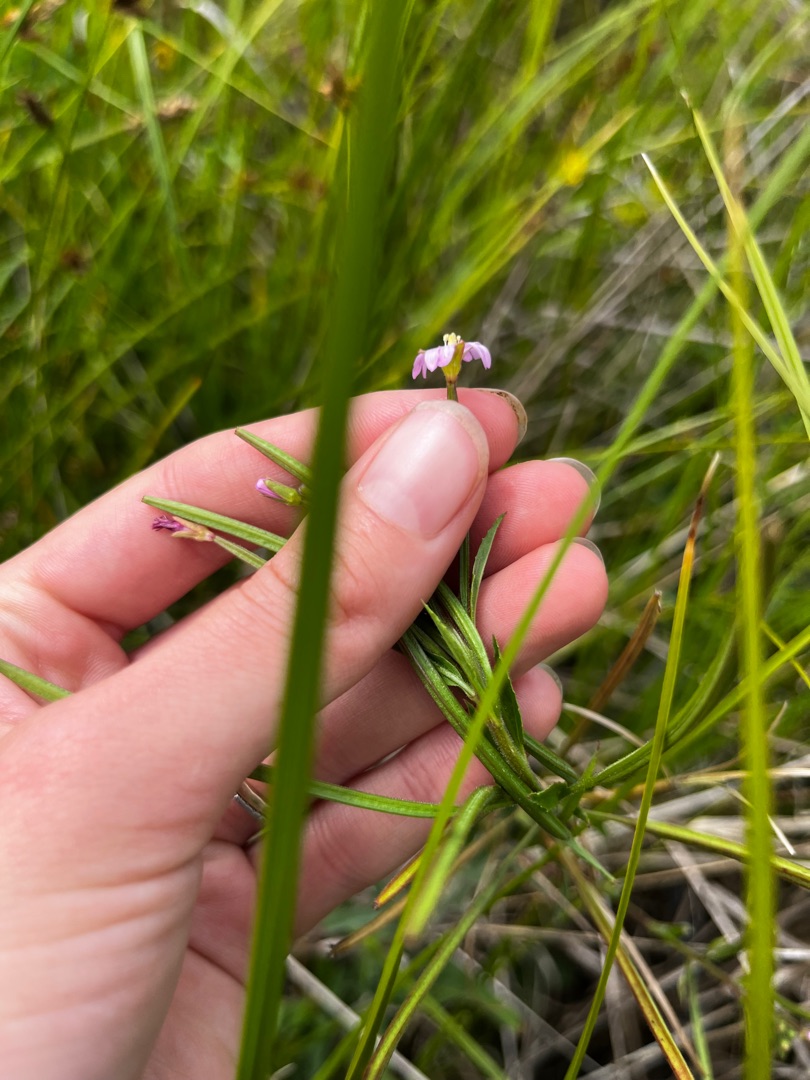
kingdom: Plantae
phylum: Tracheophyta
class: Magnoliopsida
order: Myrtales
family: Onagraceae
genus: Epilobium
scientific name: Epilobium parviflorum
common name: Dunet dueurt
